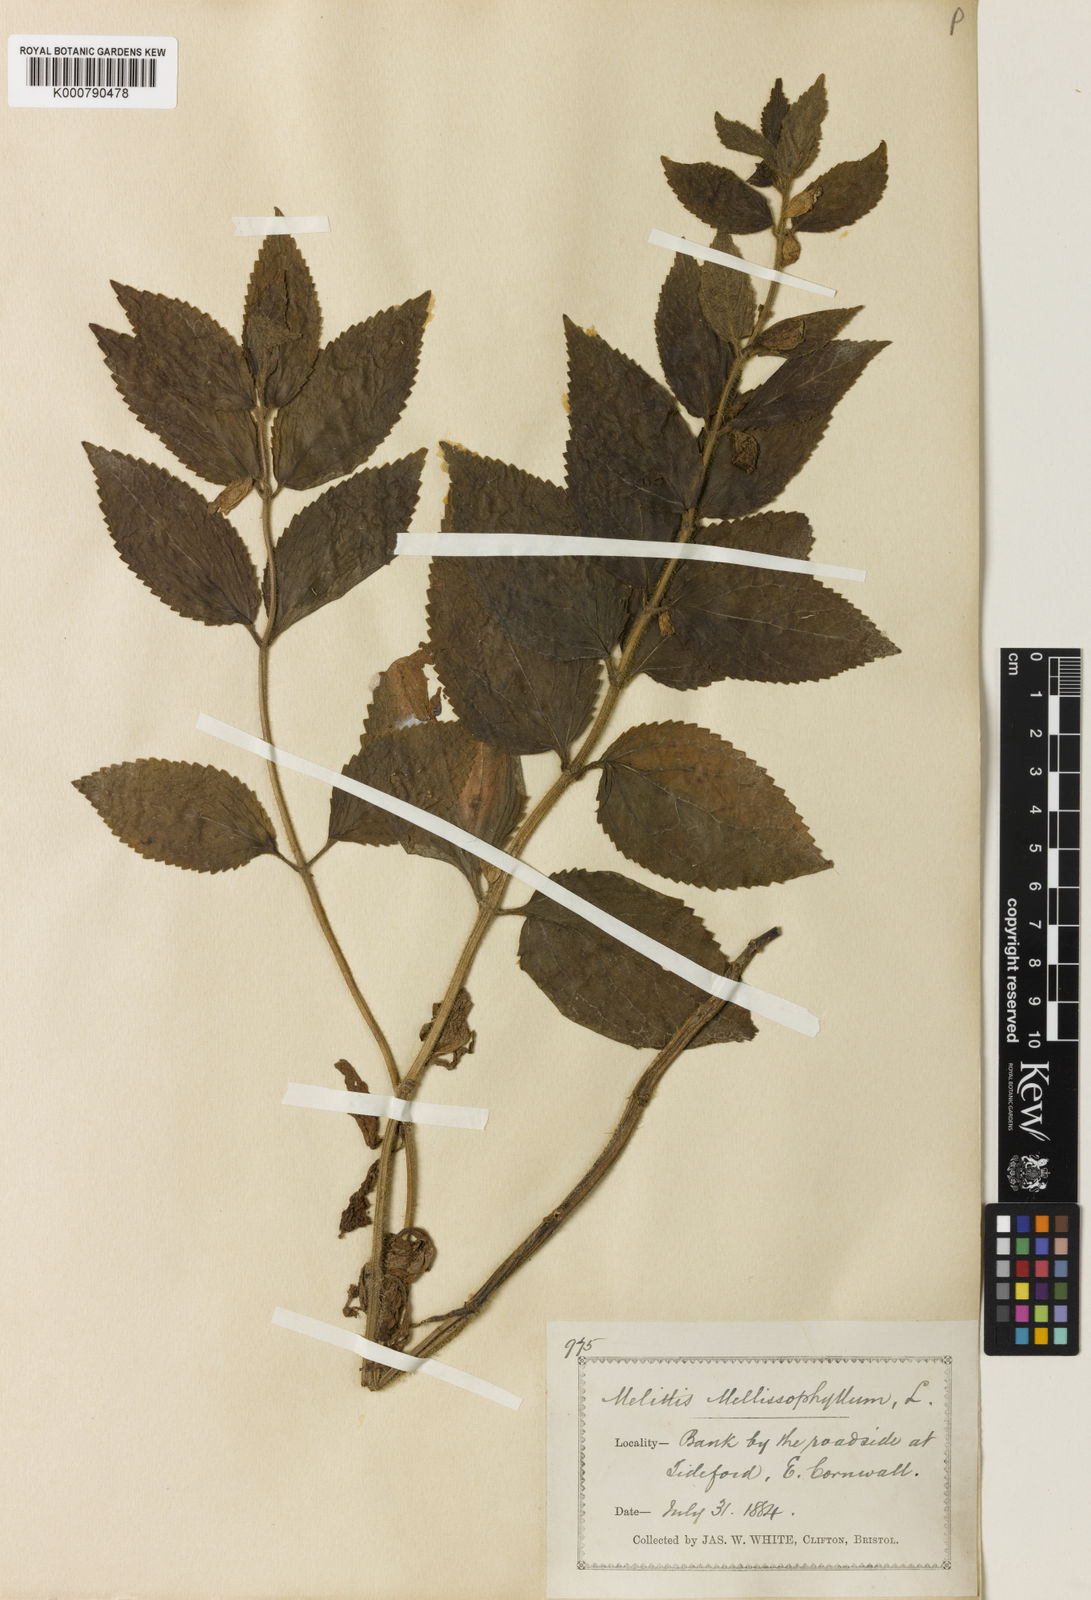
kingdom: Plantae
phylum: Tracheophyta
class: Magnoliopsida
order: Lamiales
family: Lamiaceae
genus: Melittis
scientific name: Melittis melissophyllum
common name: Bastard balm
